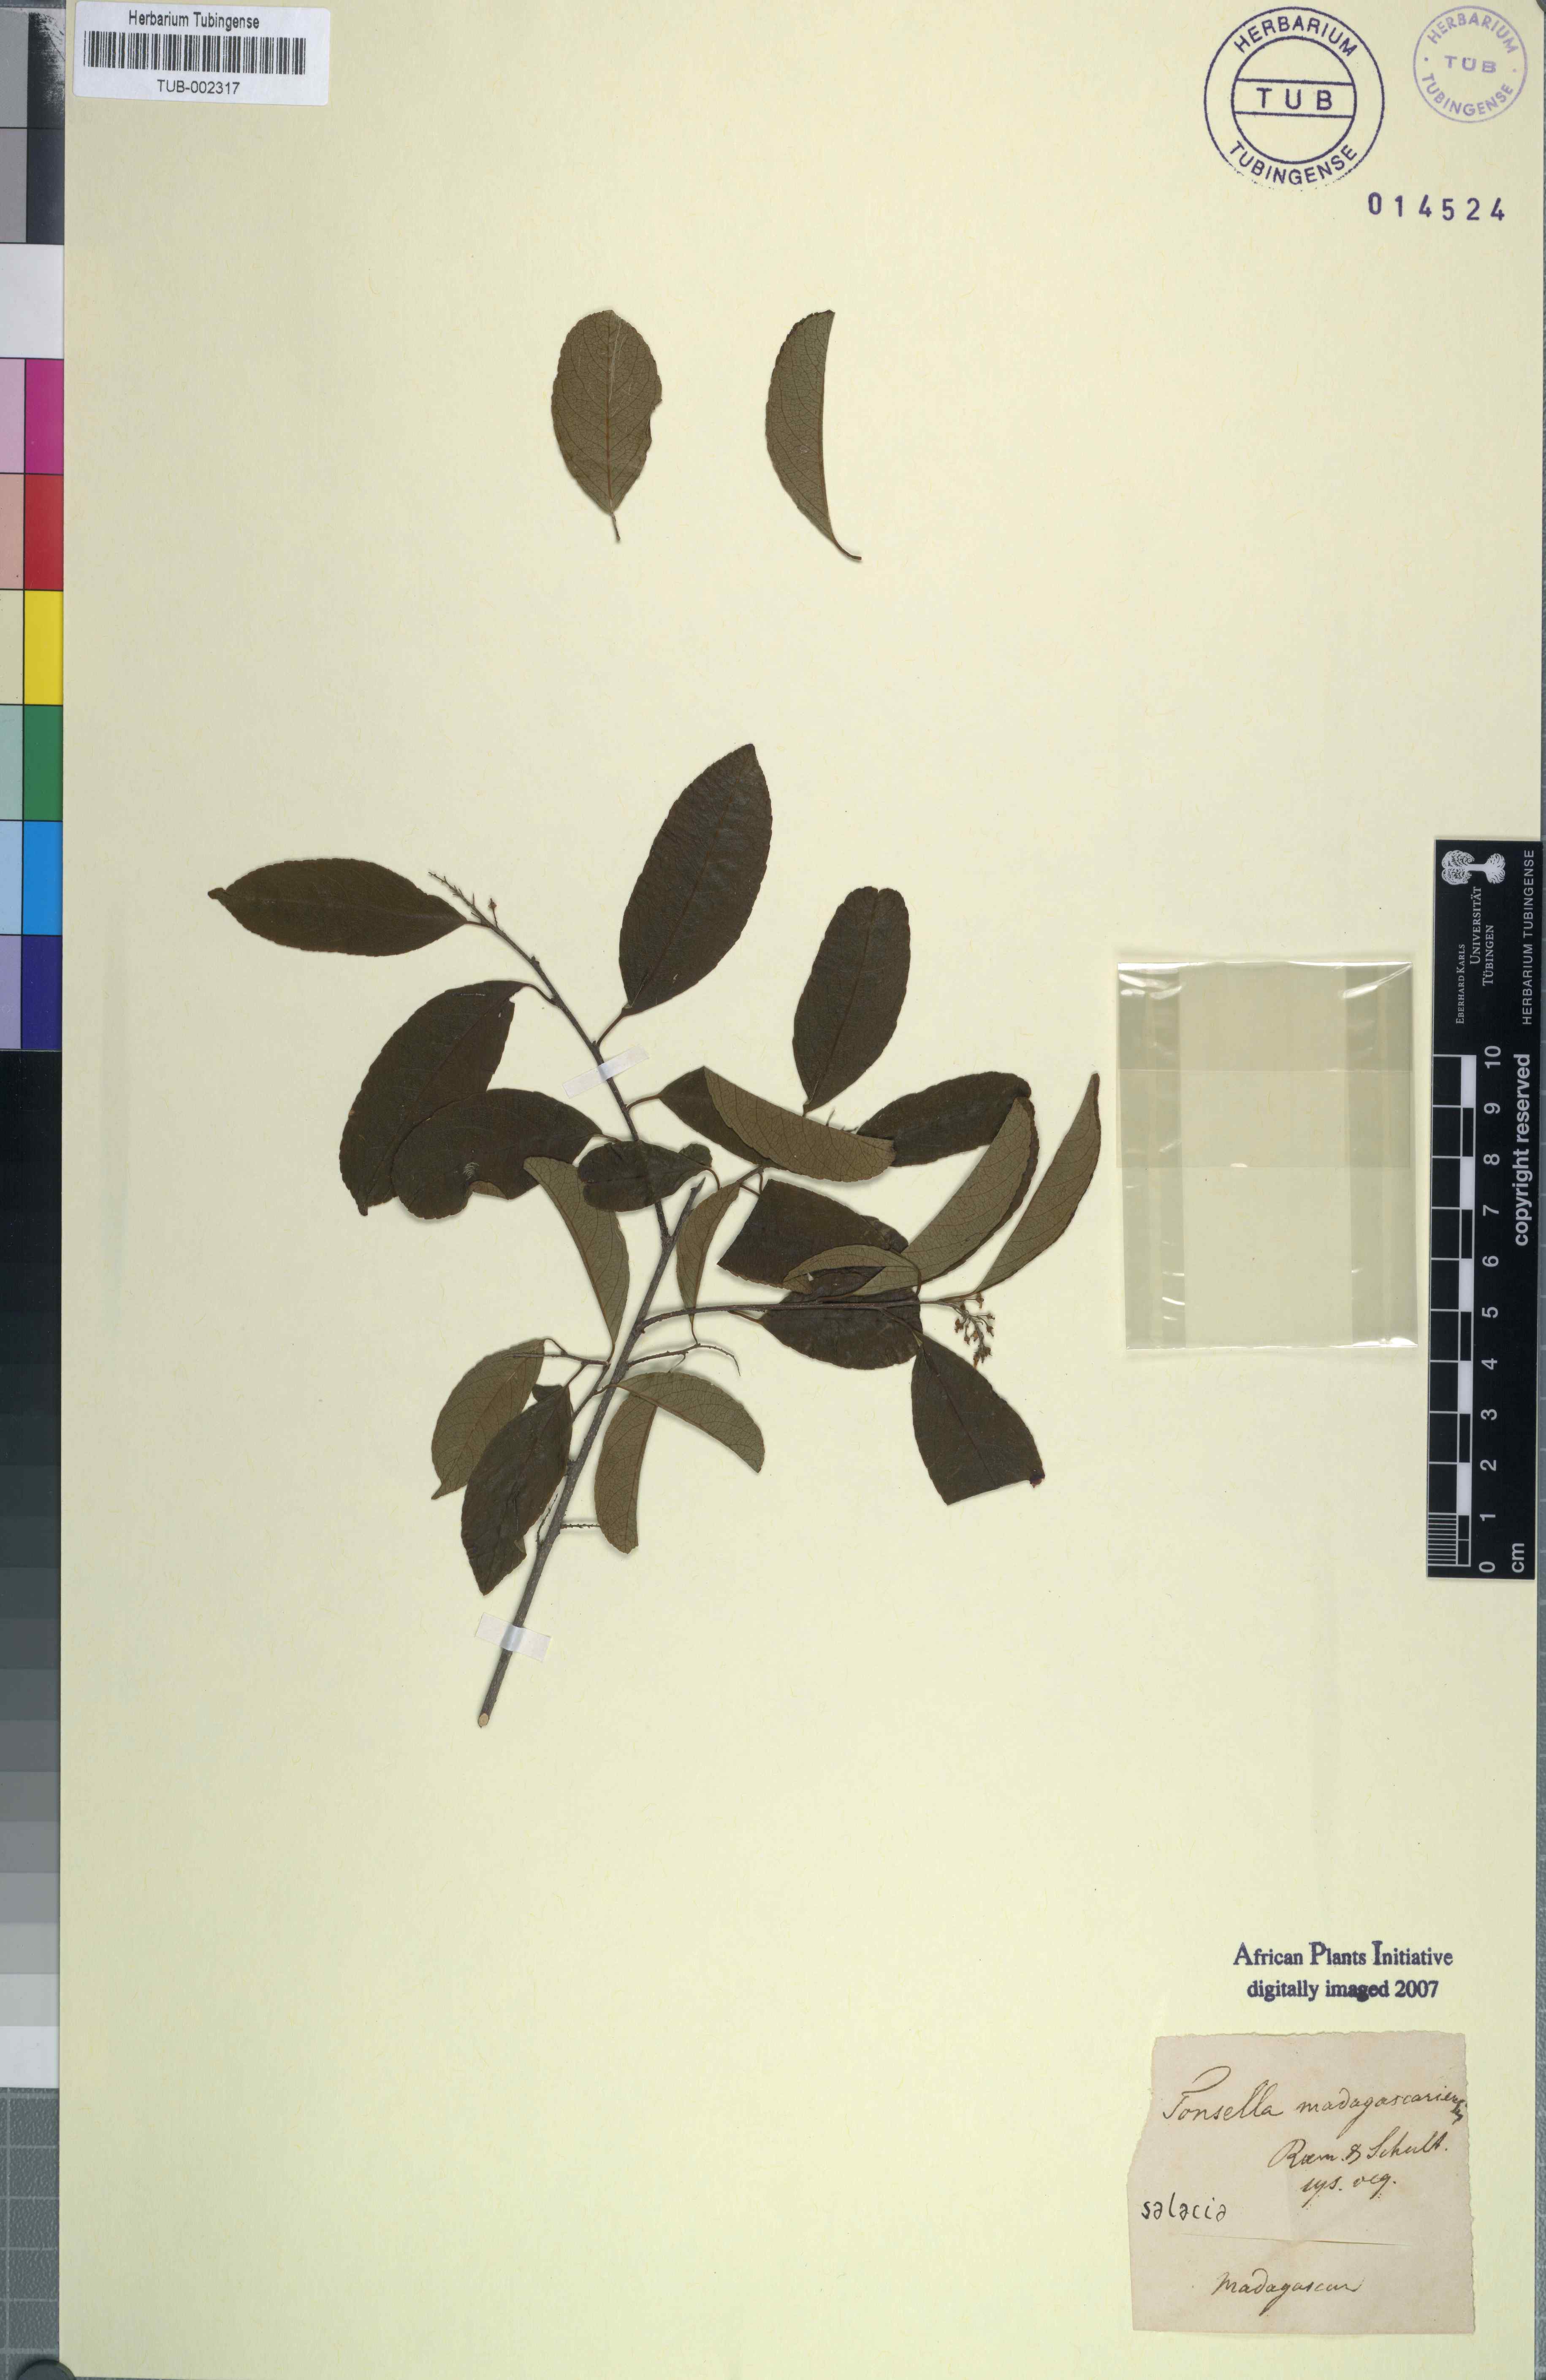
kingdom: Plantae
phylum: Tracheophyta
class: Magnoliopsida
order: Celastrales
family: Celastraceae
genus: Salacia
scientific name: Salacia madagascariensis
